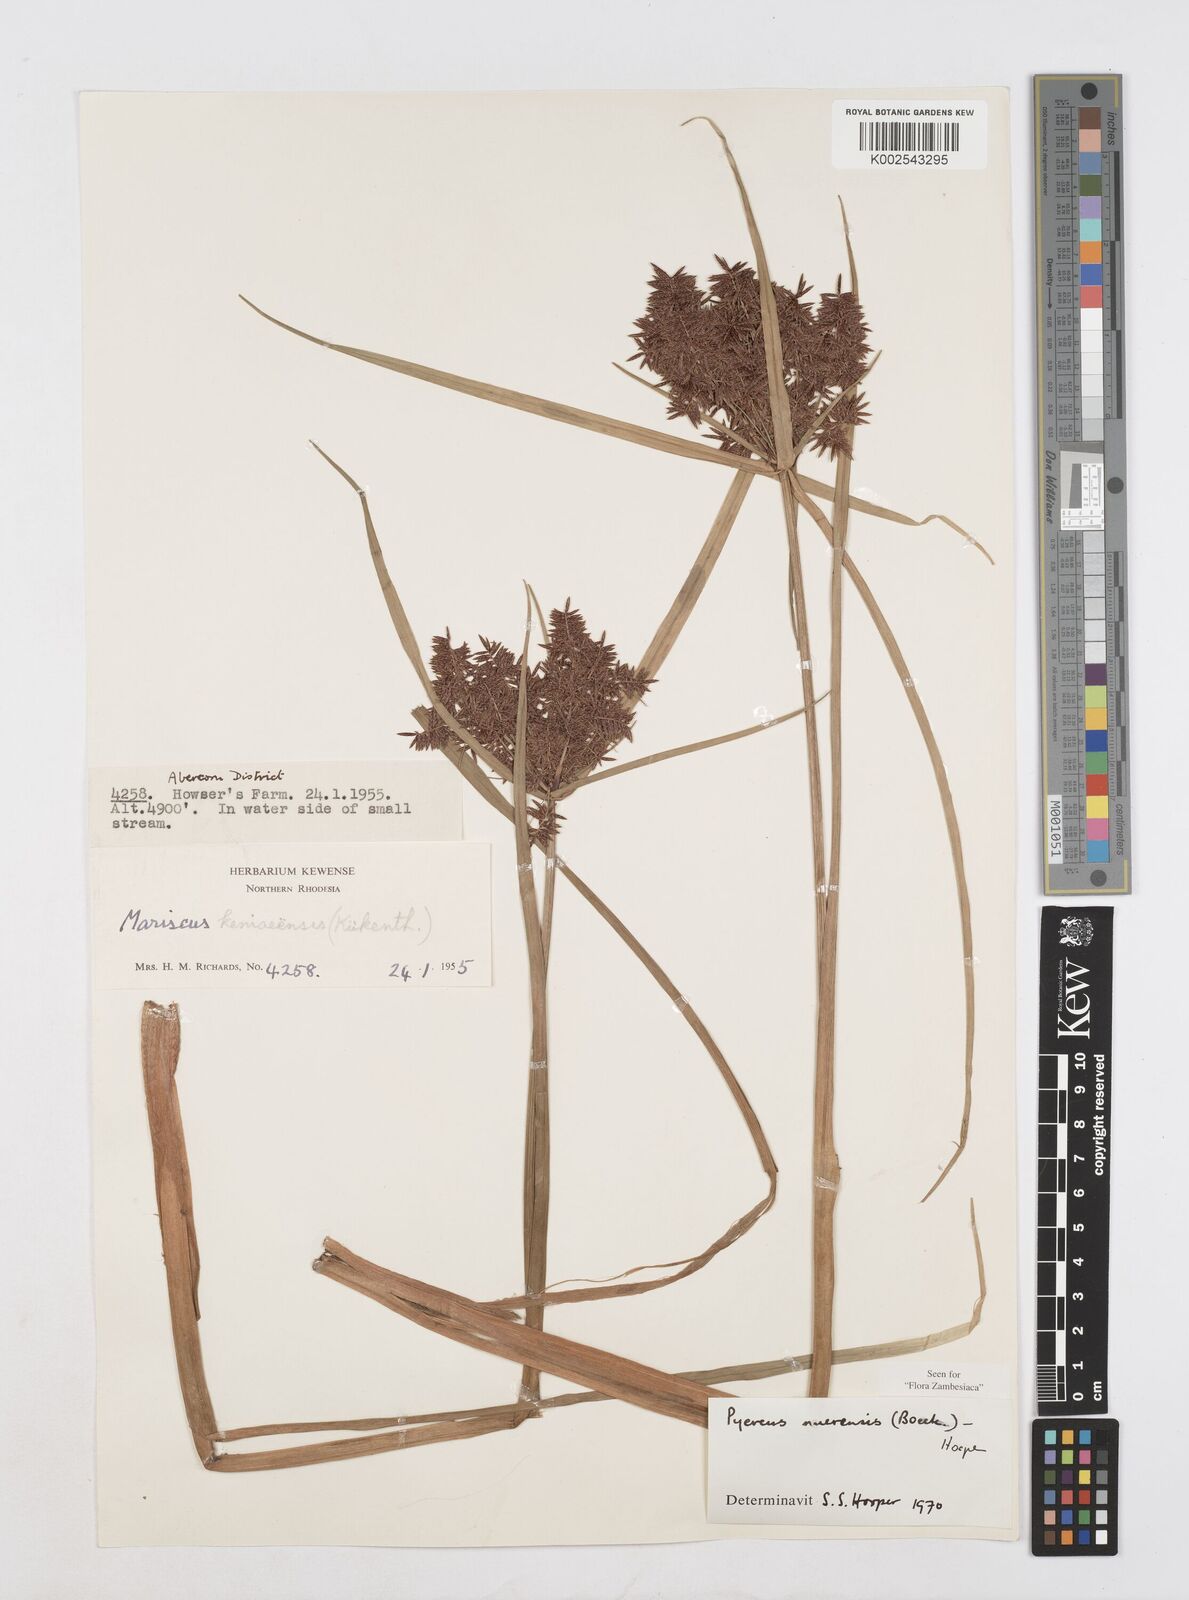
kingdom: Plantae
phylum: Tracheophyta
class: Liliopsida
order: Poales
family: Cyperaceae
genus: Cyperus
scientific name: Cyperus nuerensis
